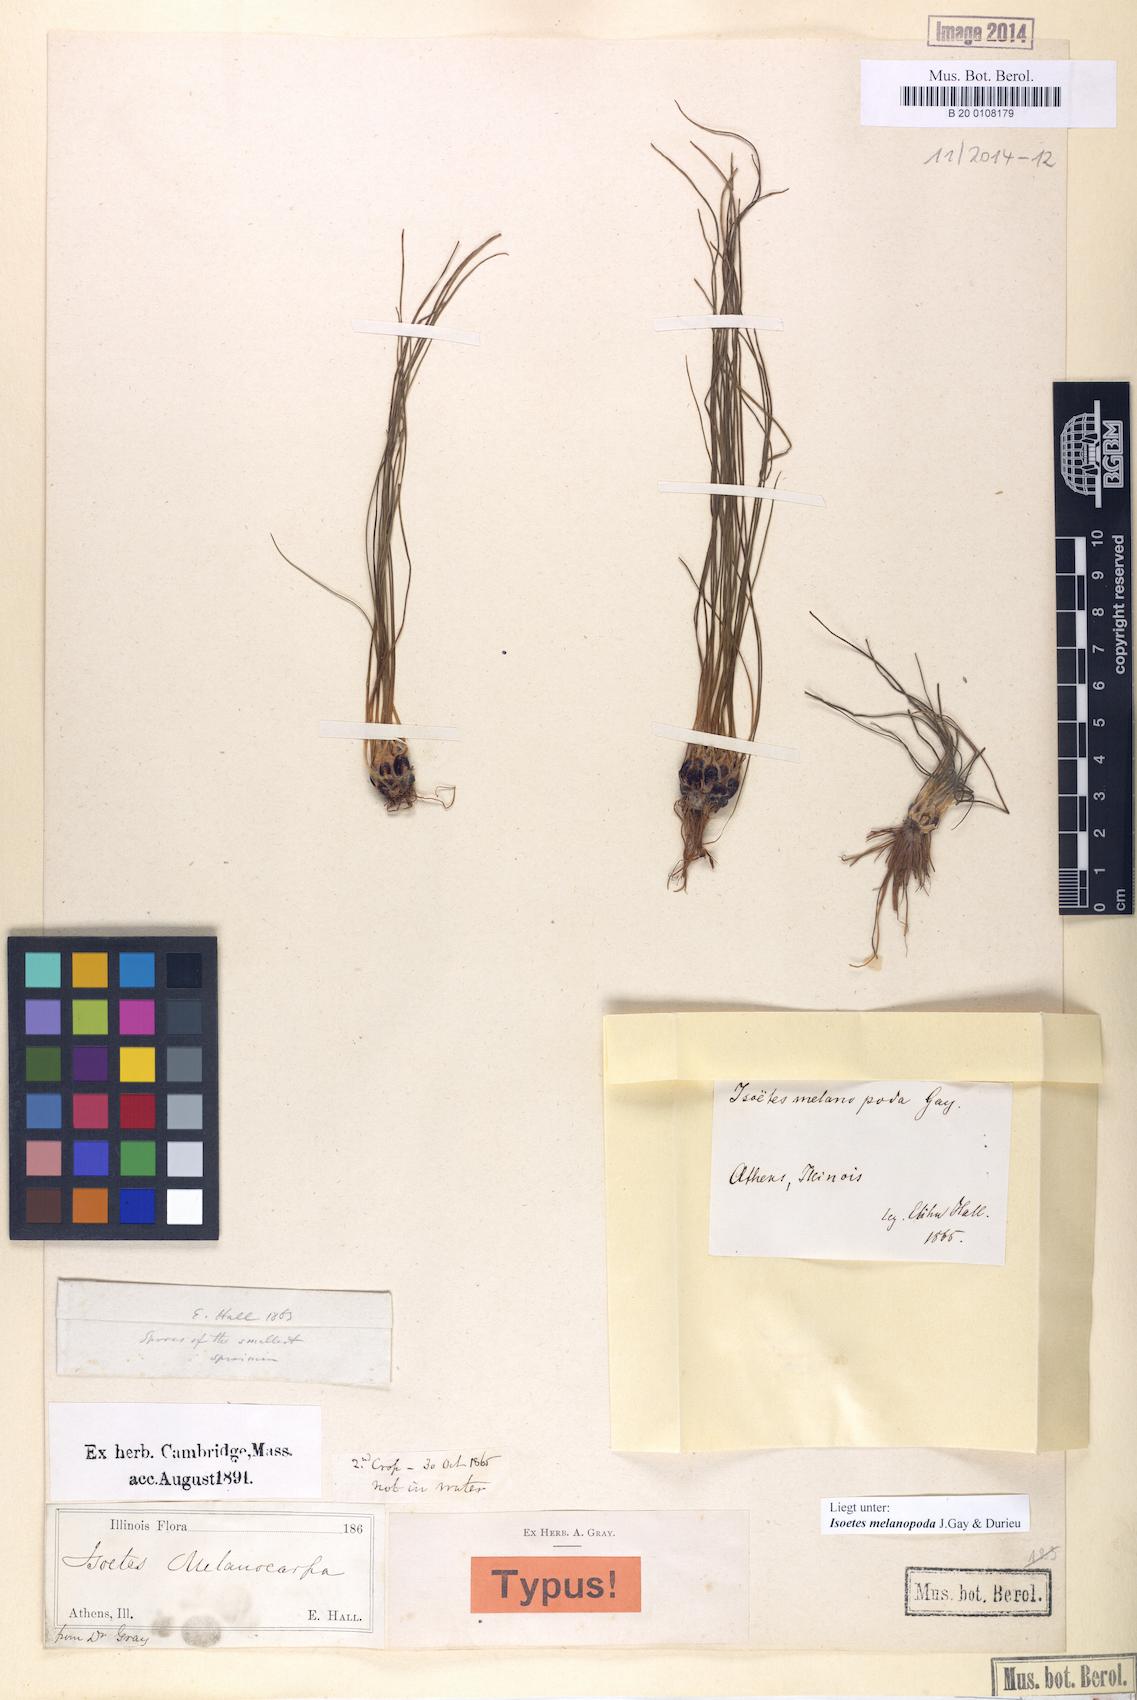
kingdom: Plantae
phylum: Tracheophyta
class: Lycopodiopsida
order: Isoetales
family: Isoetaceae
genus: Isoetes
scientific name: Isoetes melanopoda
